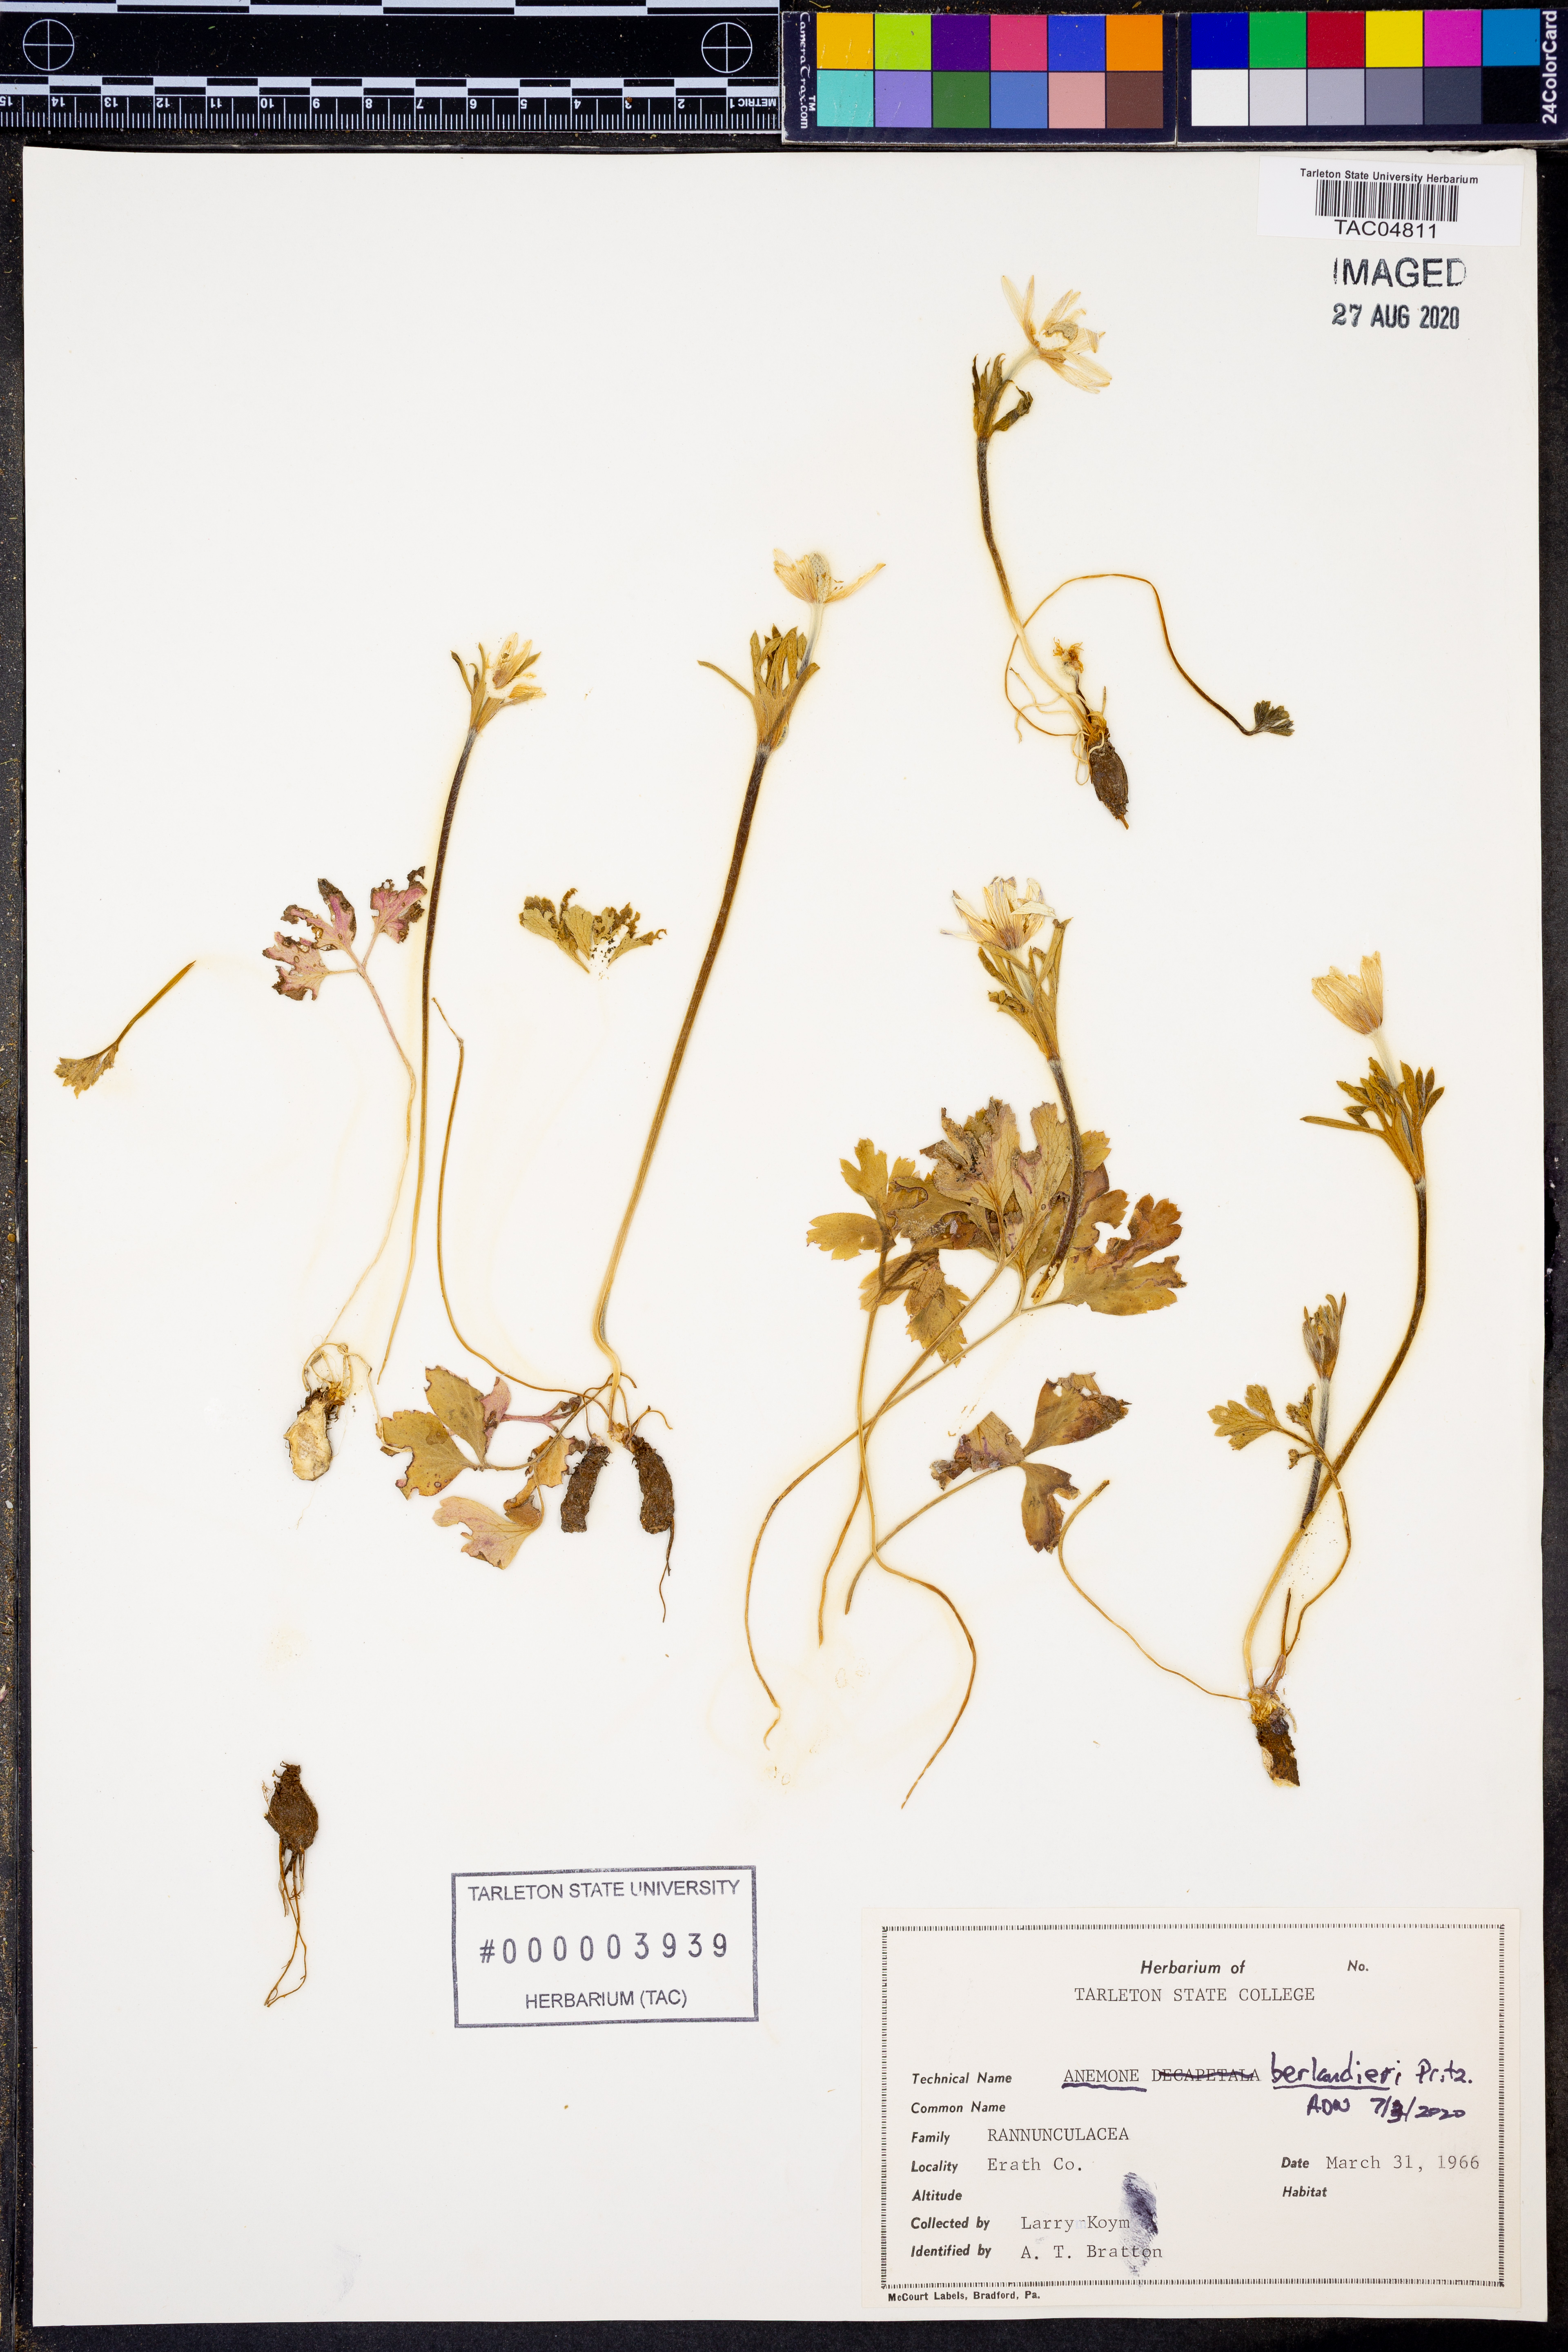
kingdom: Plantae
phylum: Tracheophyta
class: Magnoliopsida
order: Ranunculales
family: Ranunculaceae
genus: Anemone
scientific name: Anemone berlandieri
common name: Ten-petal anemone
